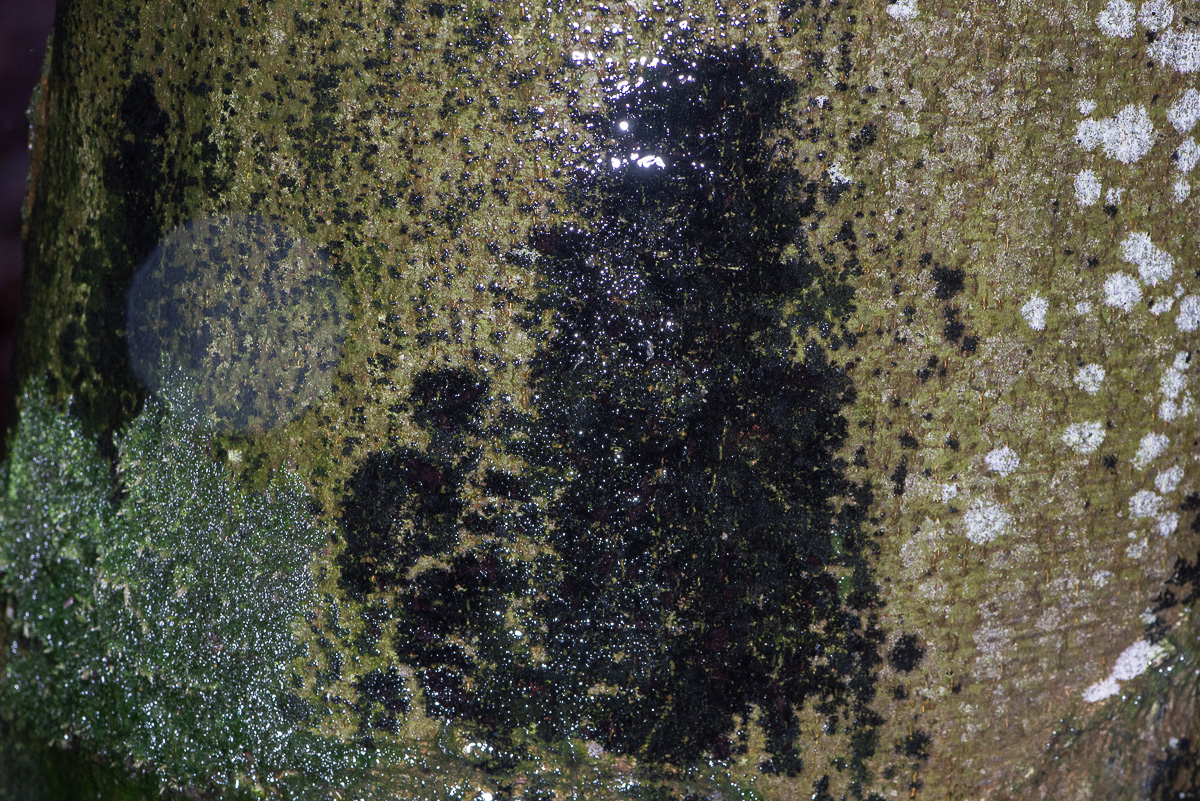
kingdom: Fungi
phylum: Ascomycota
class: Leotiomycetes
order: Rhytismatales
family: Ascodichaenaceae
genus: Ascodichaena
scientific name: Ascodichaena rugosa
